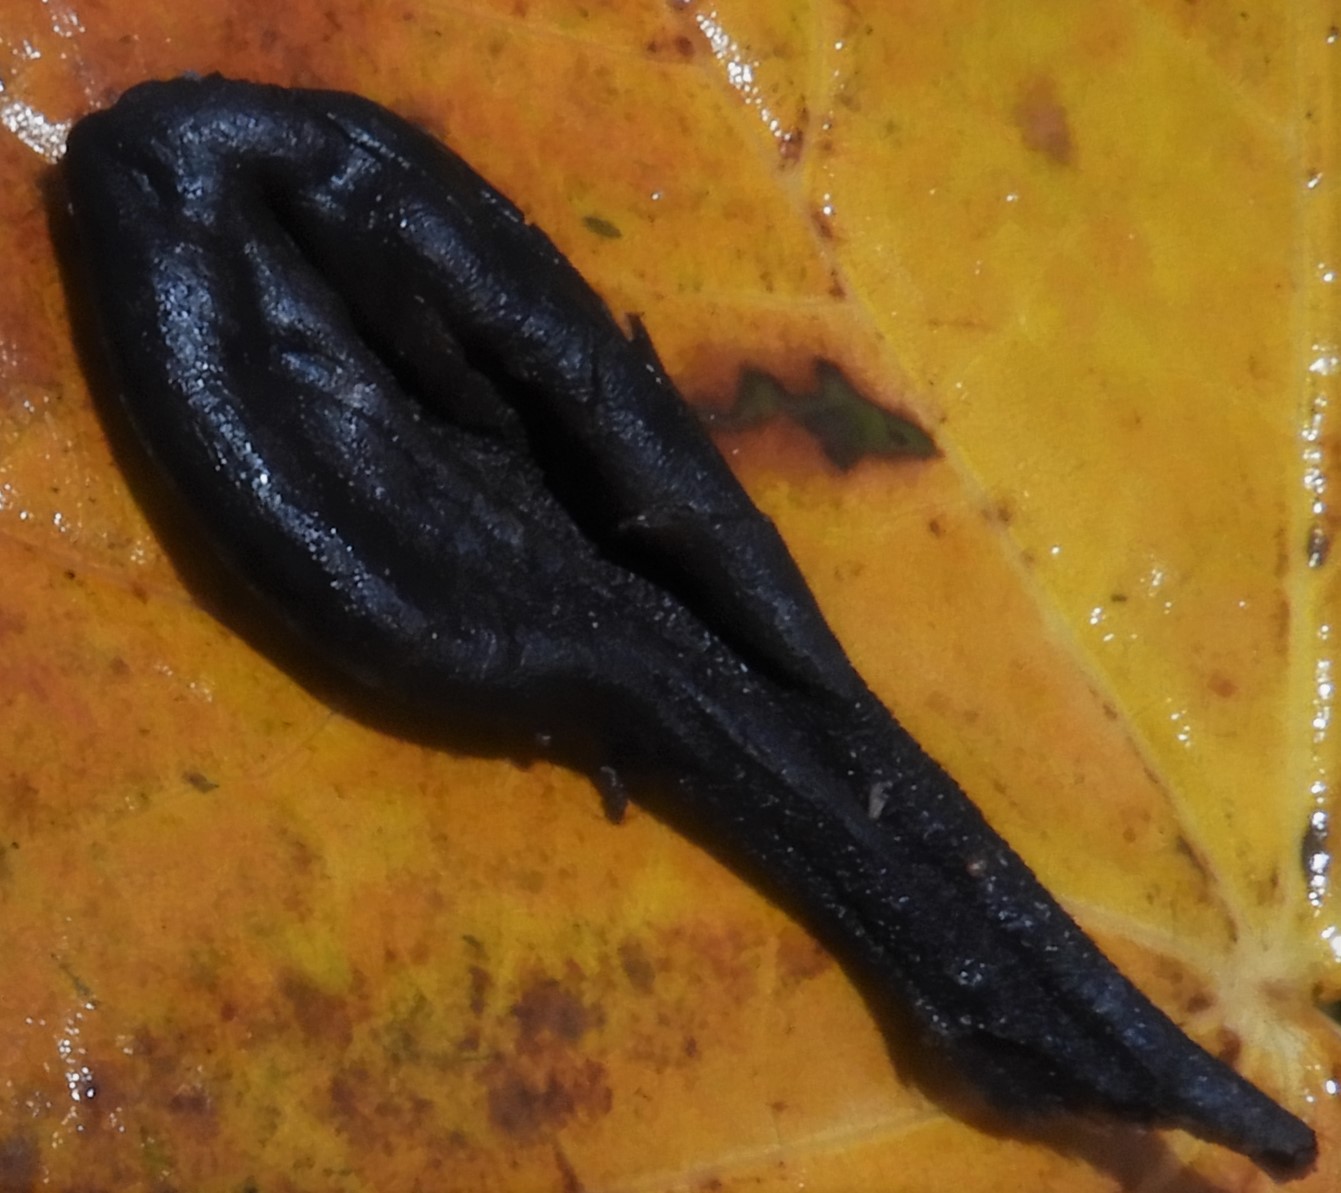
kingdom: Fungi
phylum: Ascomycota
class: Geoglossomycetes
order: Geoglossales
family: Geoglossaceae
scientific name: Geoglossaceae
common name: jordtungefamilien
